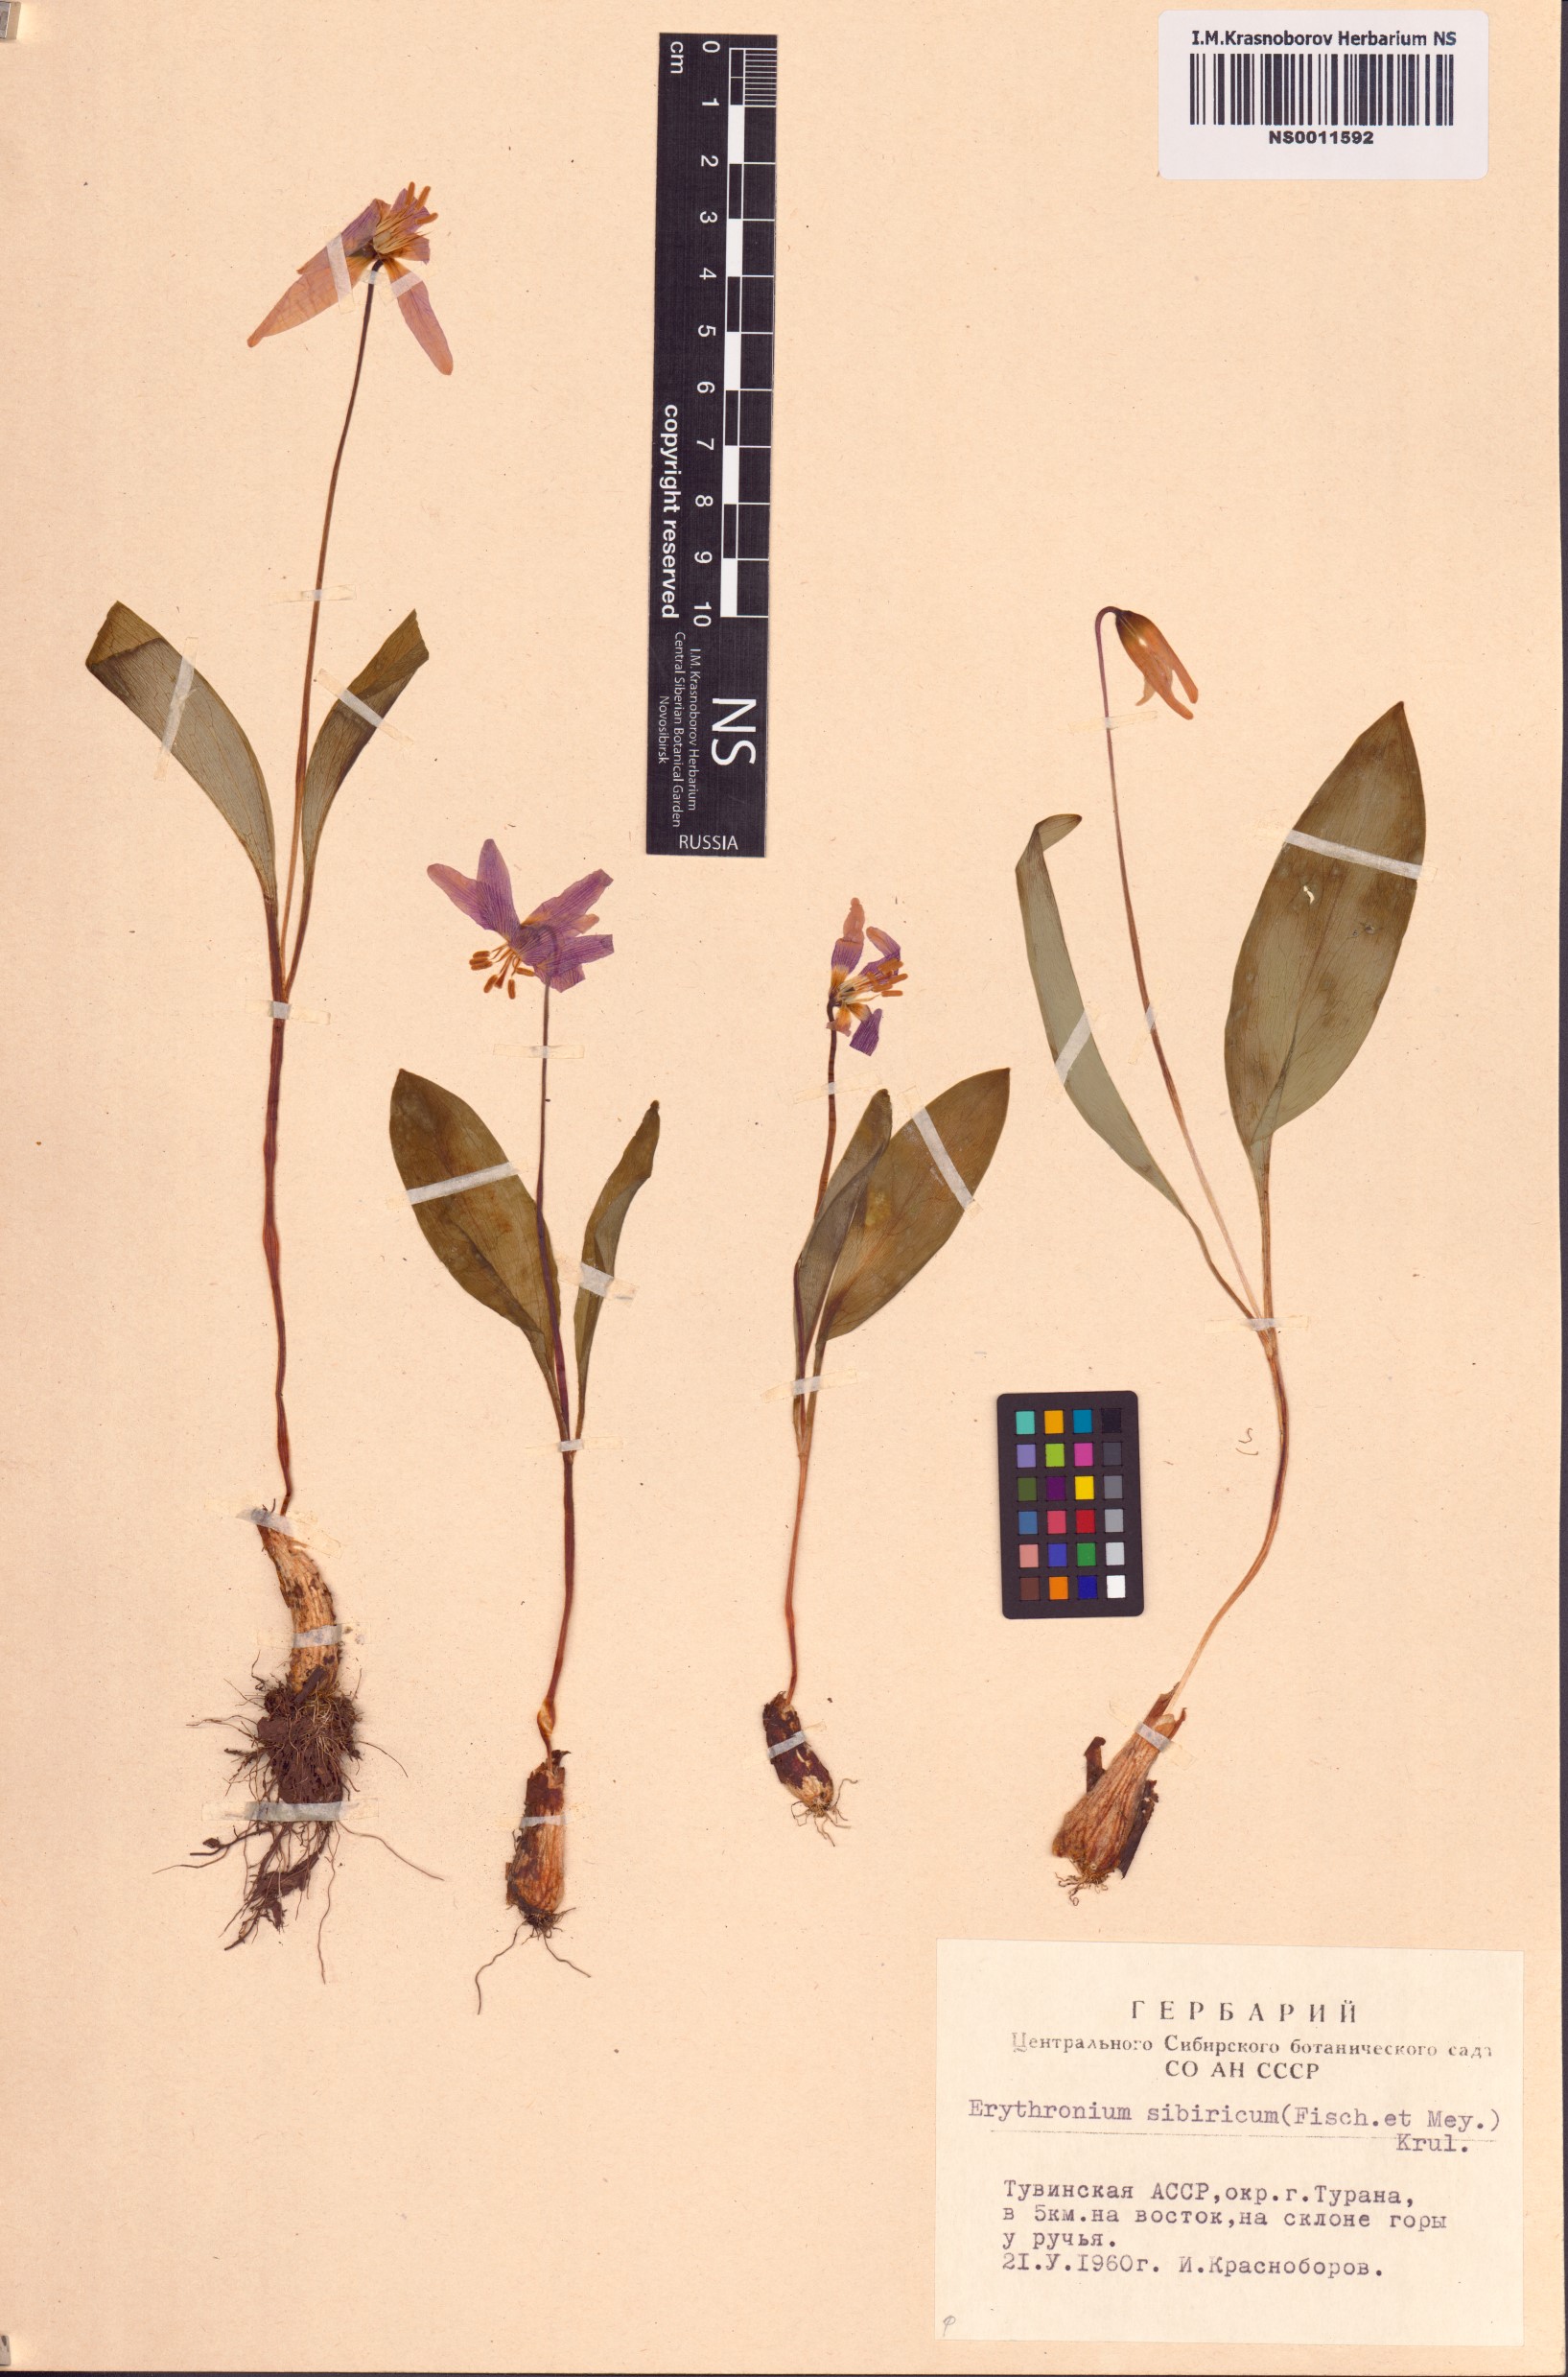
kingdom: Plantae
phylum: Tracheophyta
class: Liliopsida
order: Liliales
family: Liliaceae
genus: Erythronium
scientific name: Erythronium sibiricum
